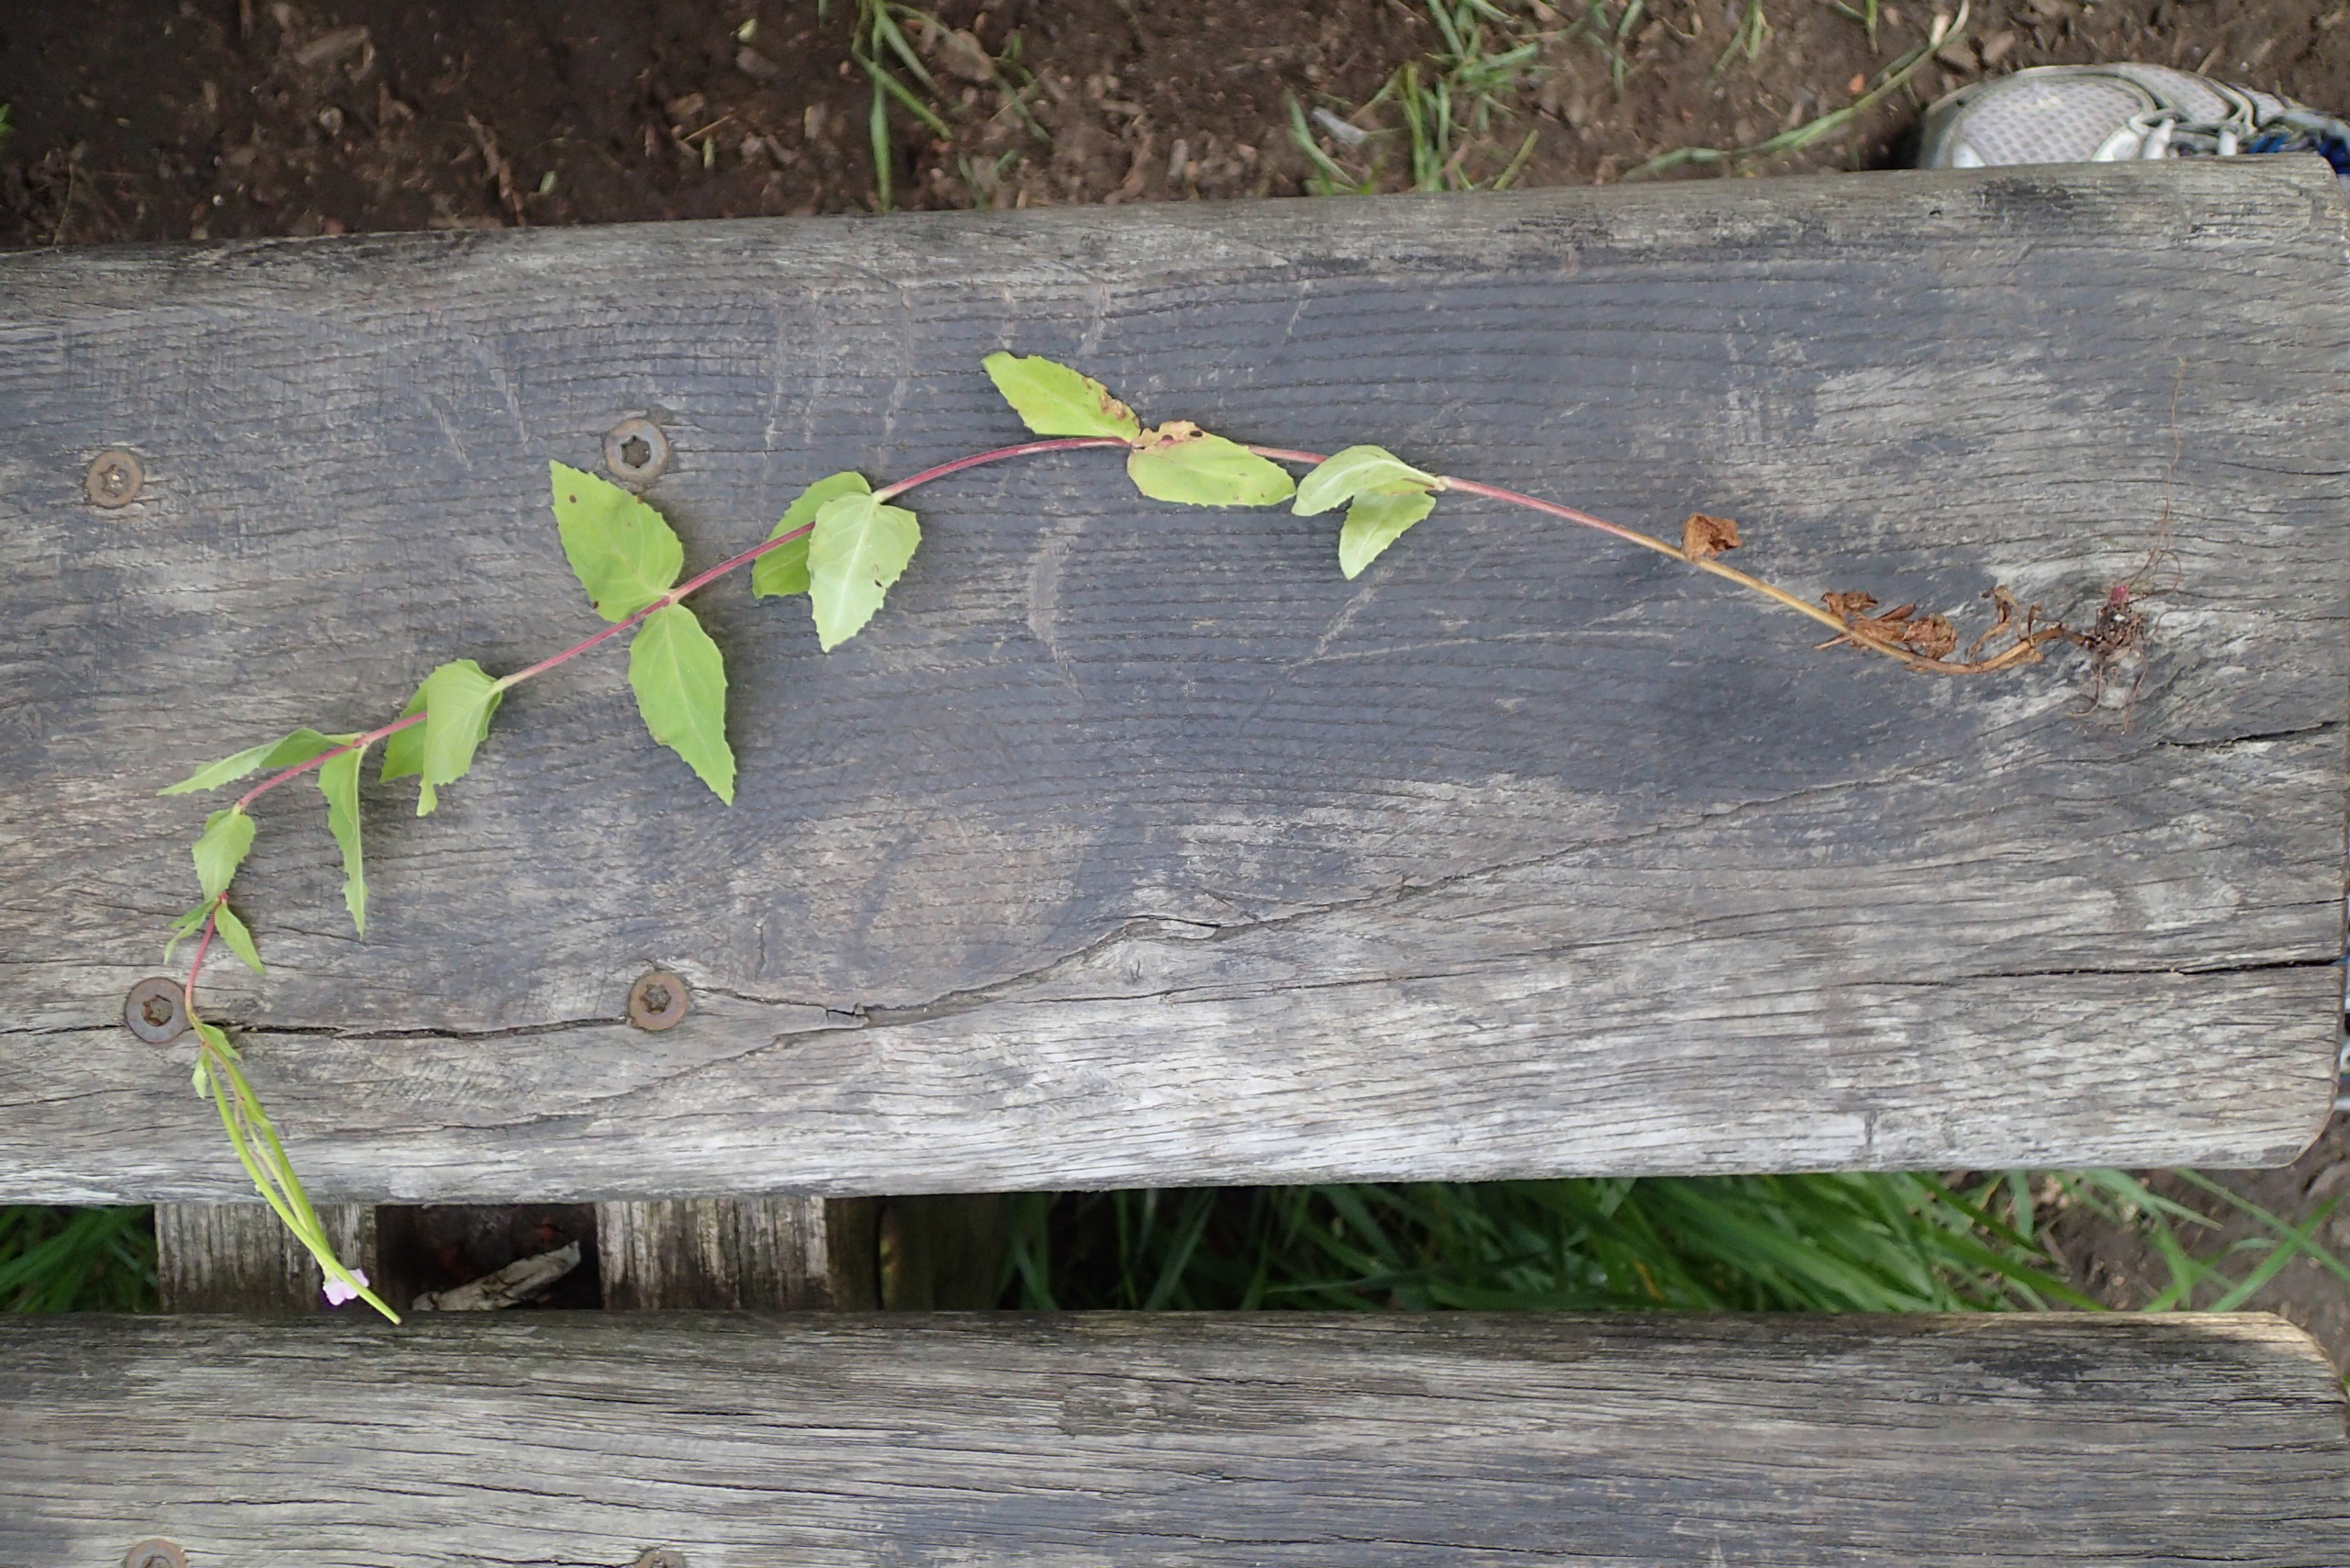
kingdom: Plantae
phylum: Tracheophyta
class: Magnoliopsida
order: Myrtales
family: Onagraceae
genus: Epilobium
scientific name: Epilobium montanum
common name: Glat dueurt
